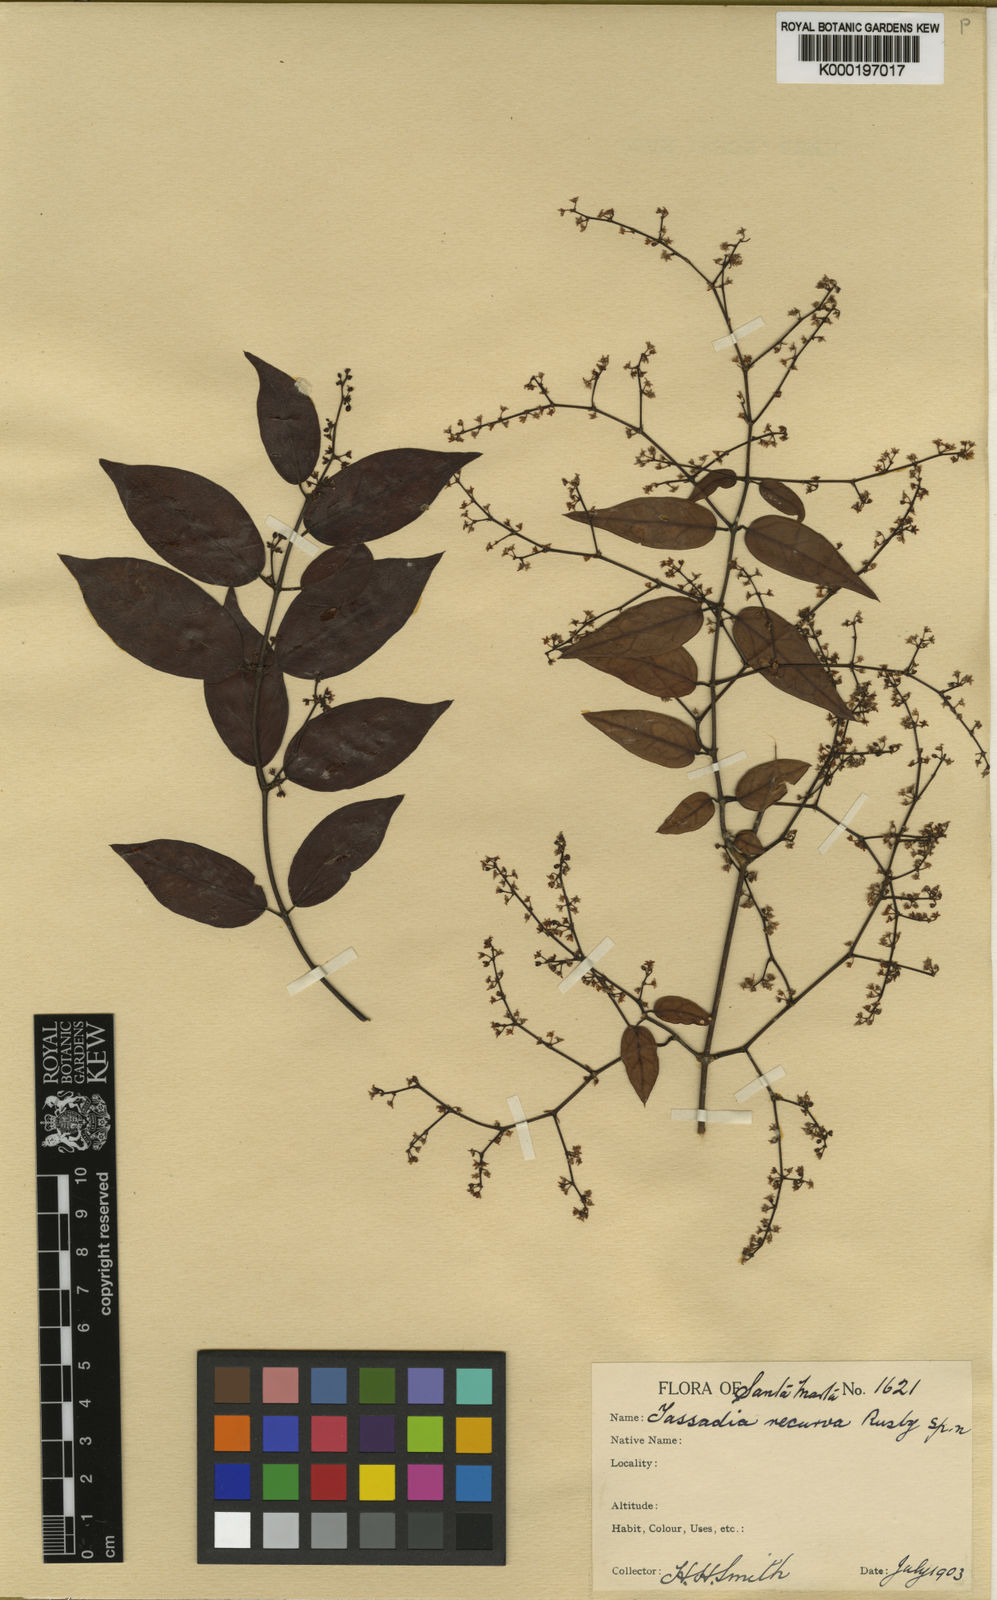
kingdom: Plantae
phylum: Tracheophyta
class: Magnoliopsida
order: Gentianales
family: Apocynaceae
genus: Tassadia
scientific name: Tassadia obovata
